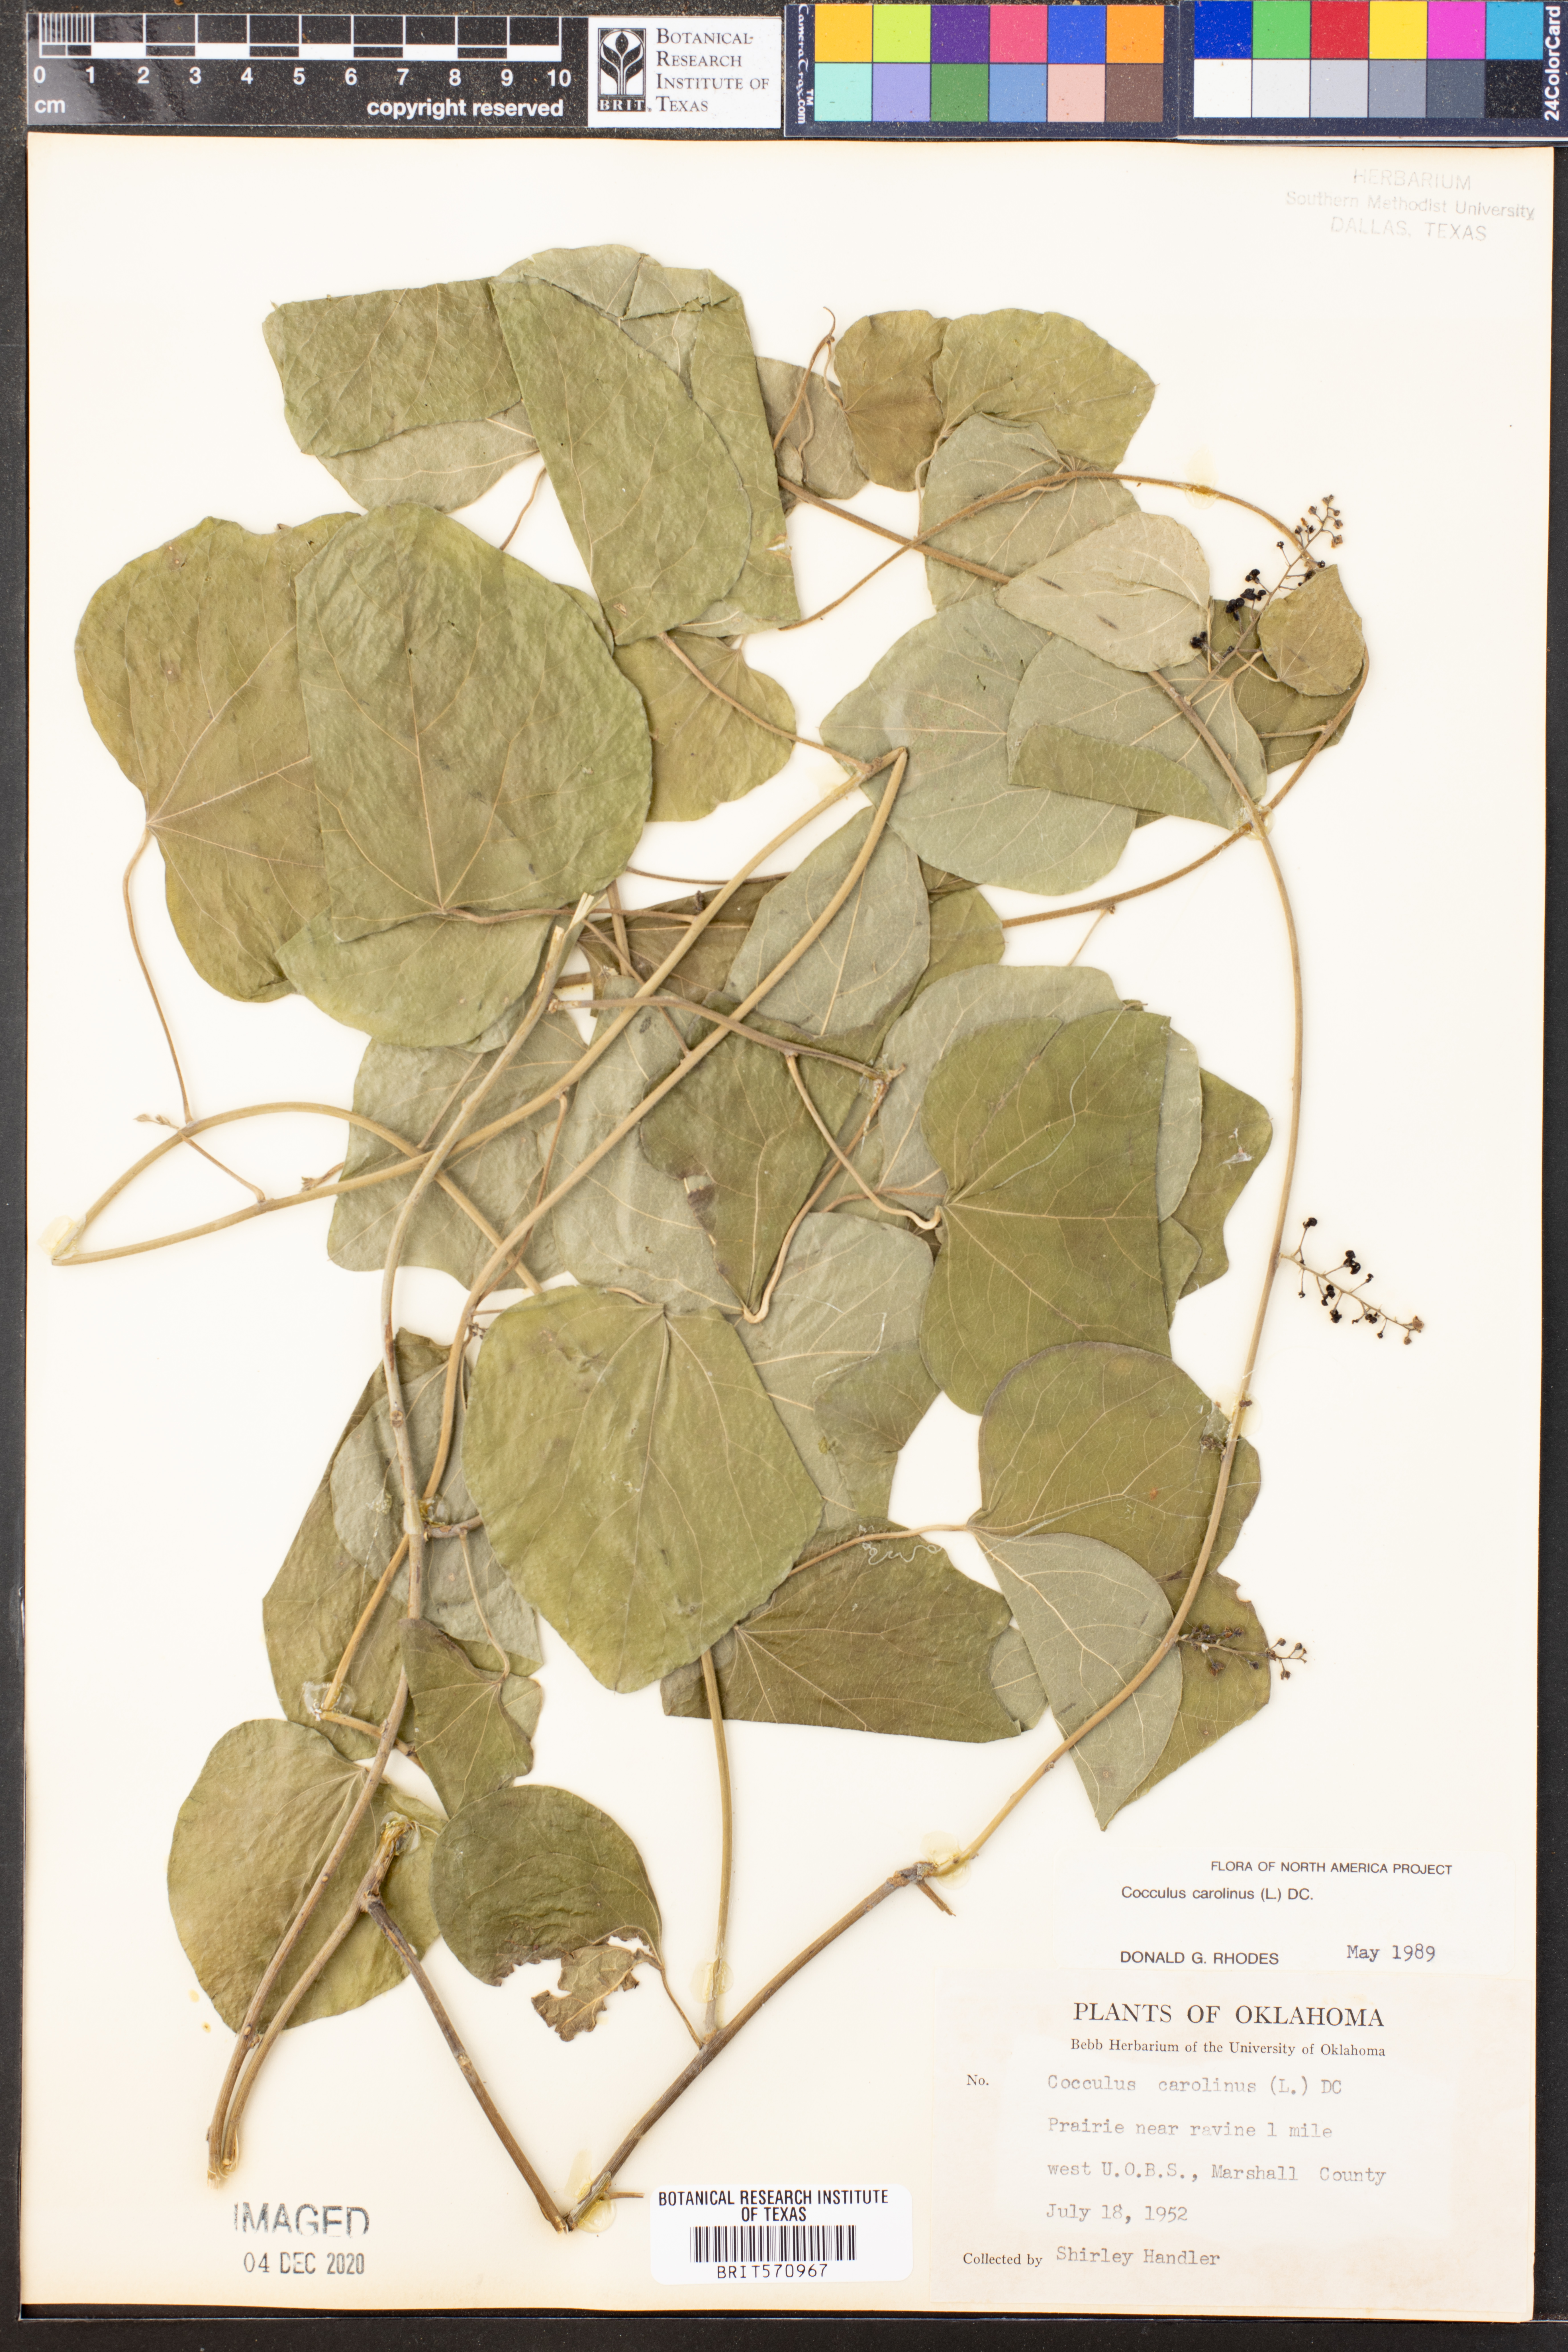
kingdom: Plantae
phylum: Tracheophyta
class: Magnoliopsida
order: Ranunculales
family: Menispermaceae
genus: Cocculus
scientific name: Cocculus carolinus
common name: Carolina moonseed
